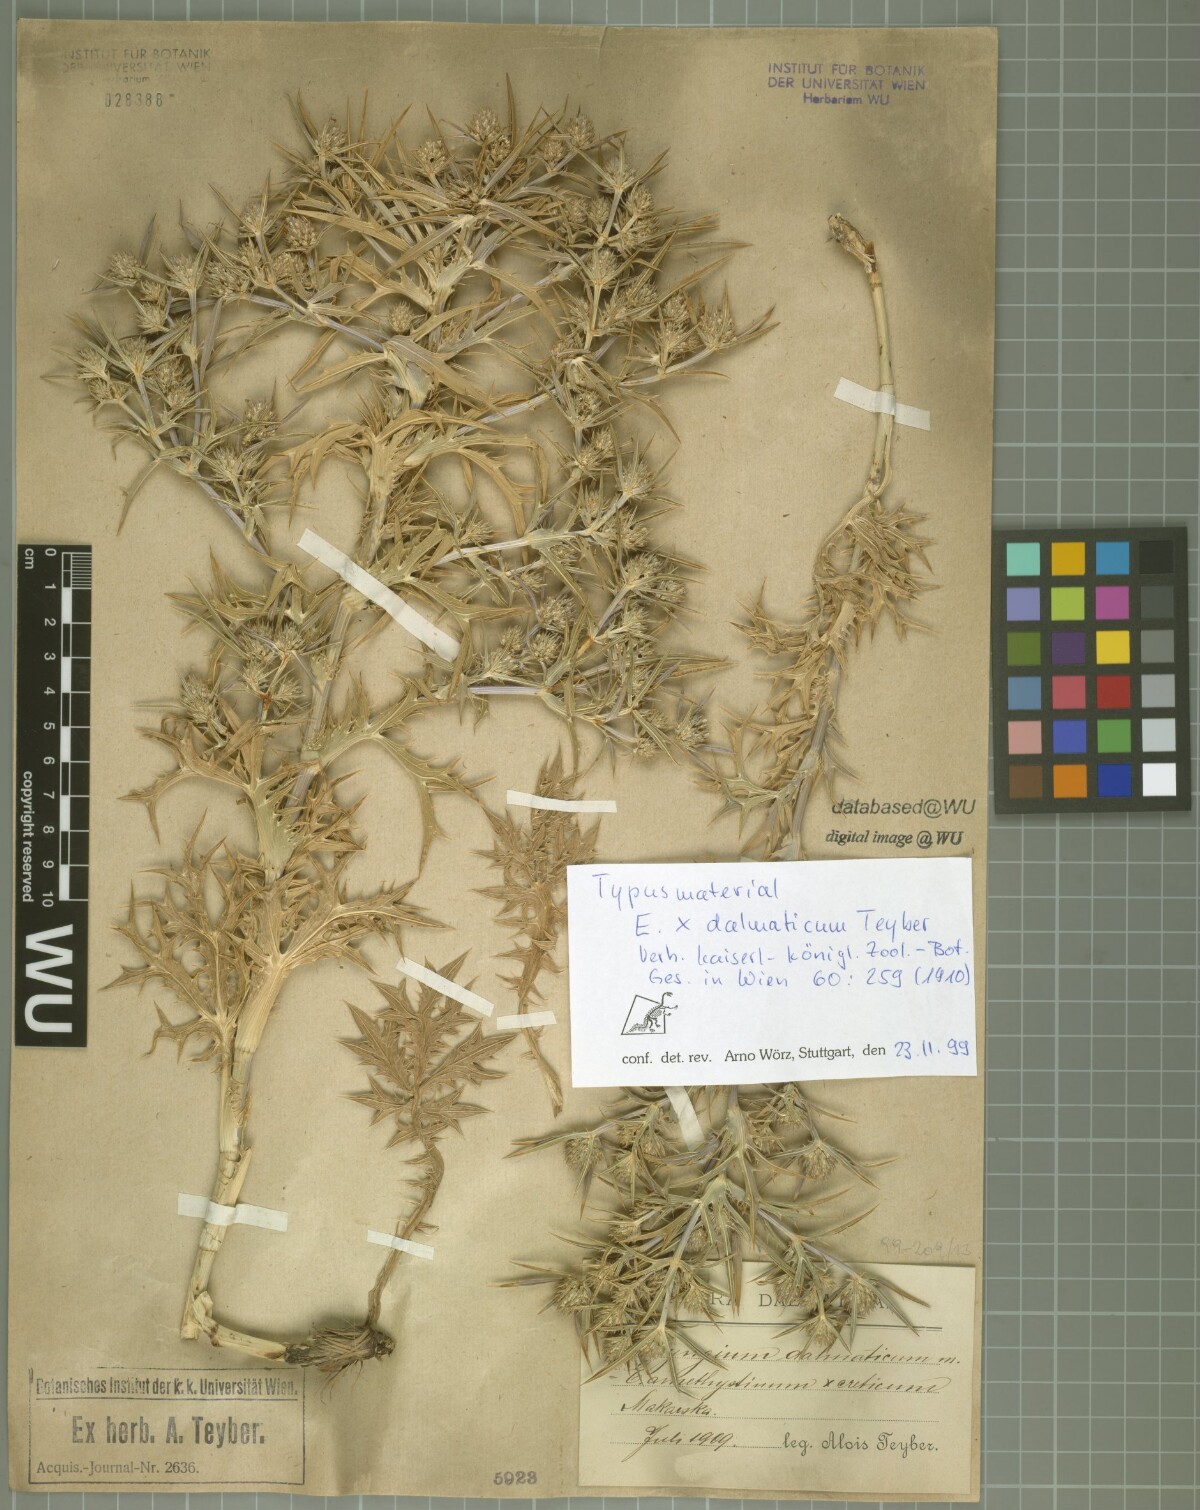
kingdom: Plantae
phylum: Tracheophyta
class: Magnoliopsida
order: Apiales
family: Apiaceae
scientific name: Apiaceae
